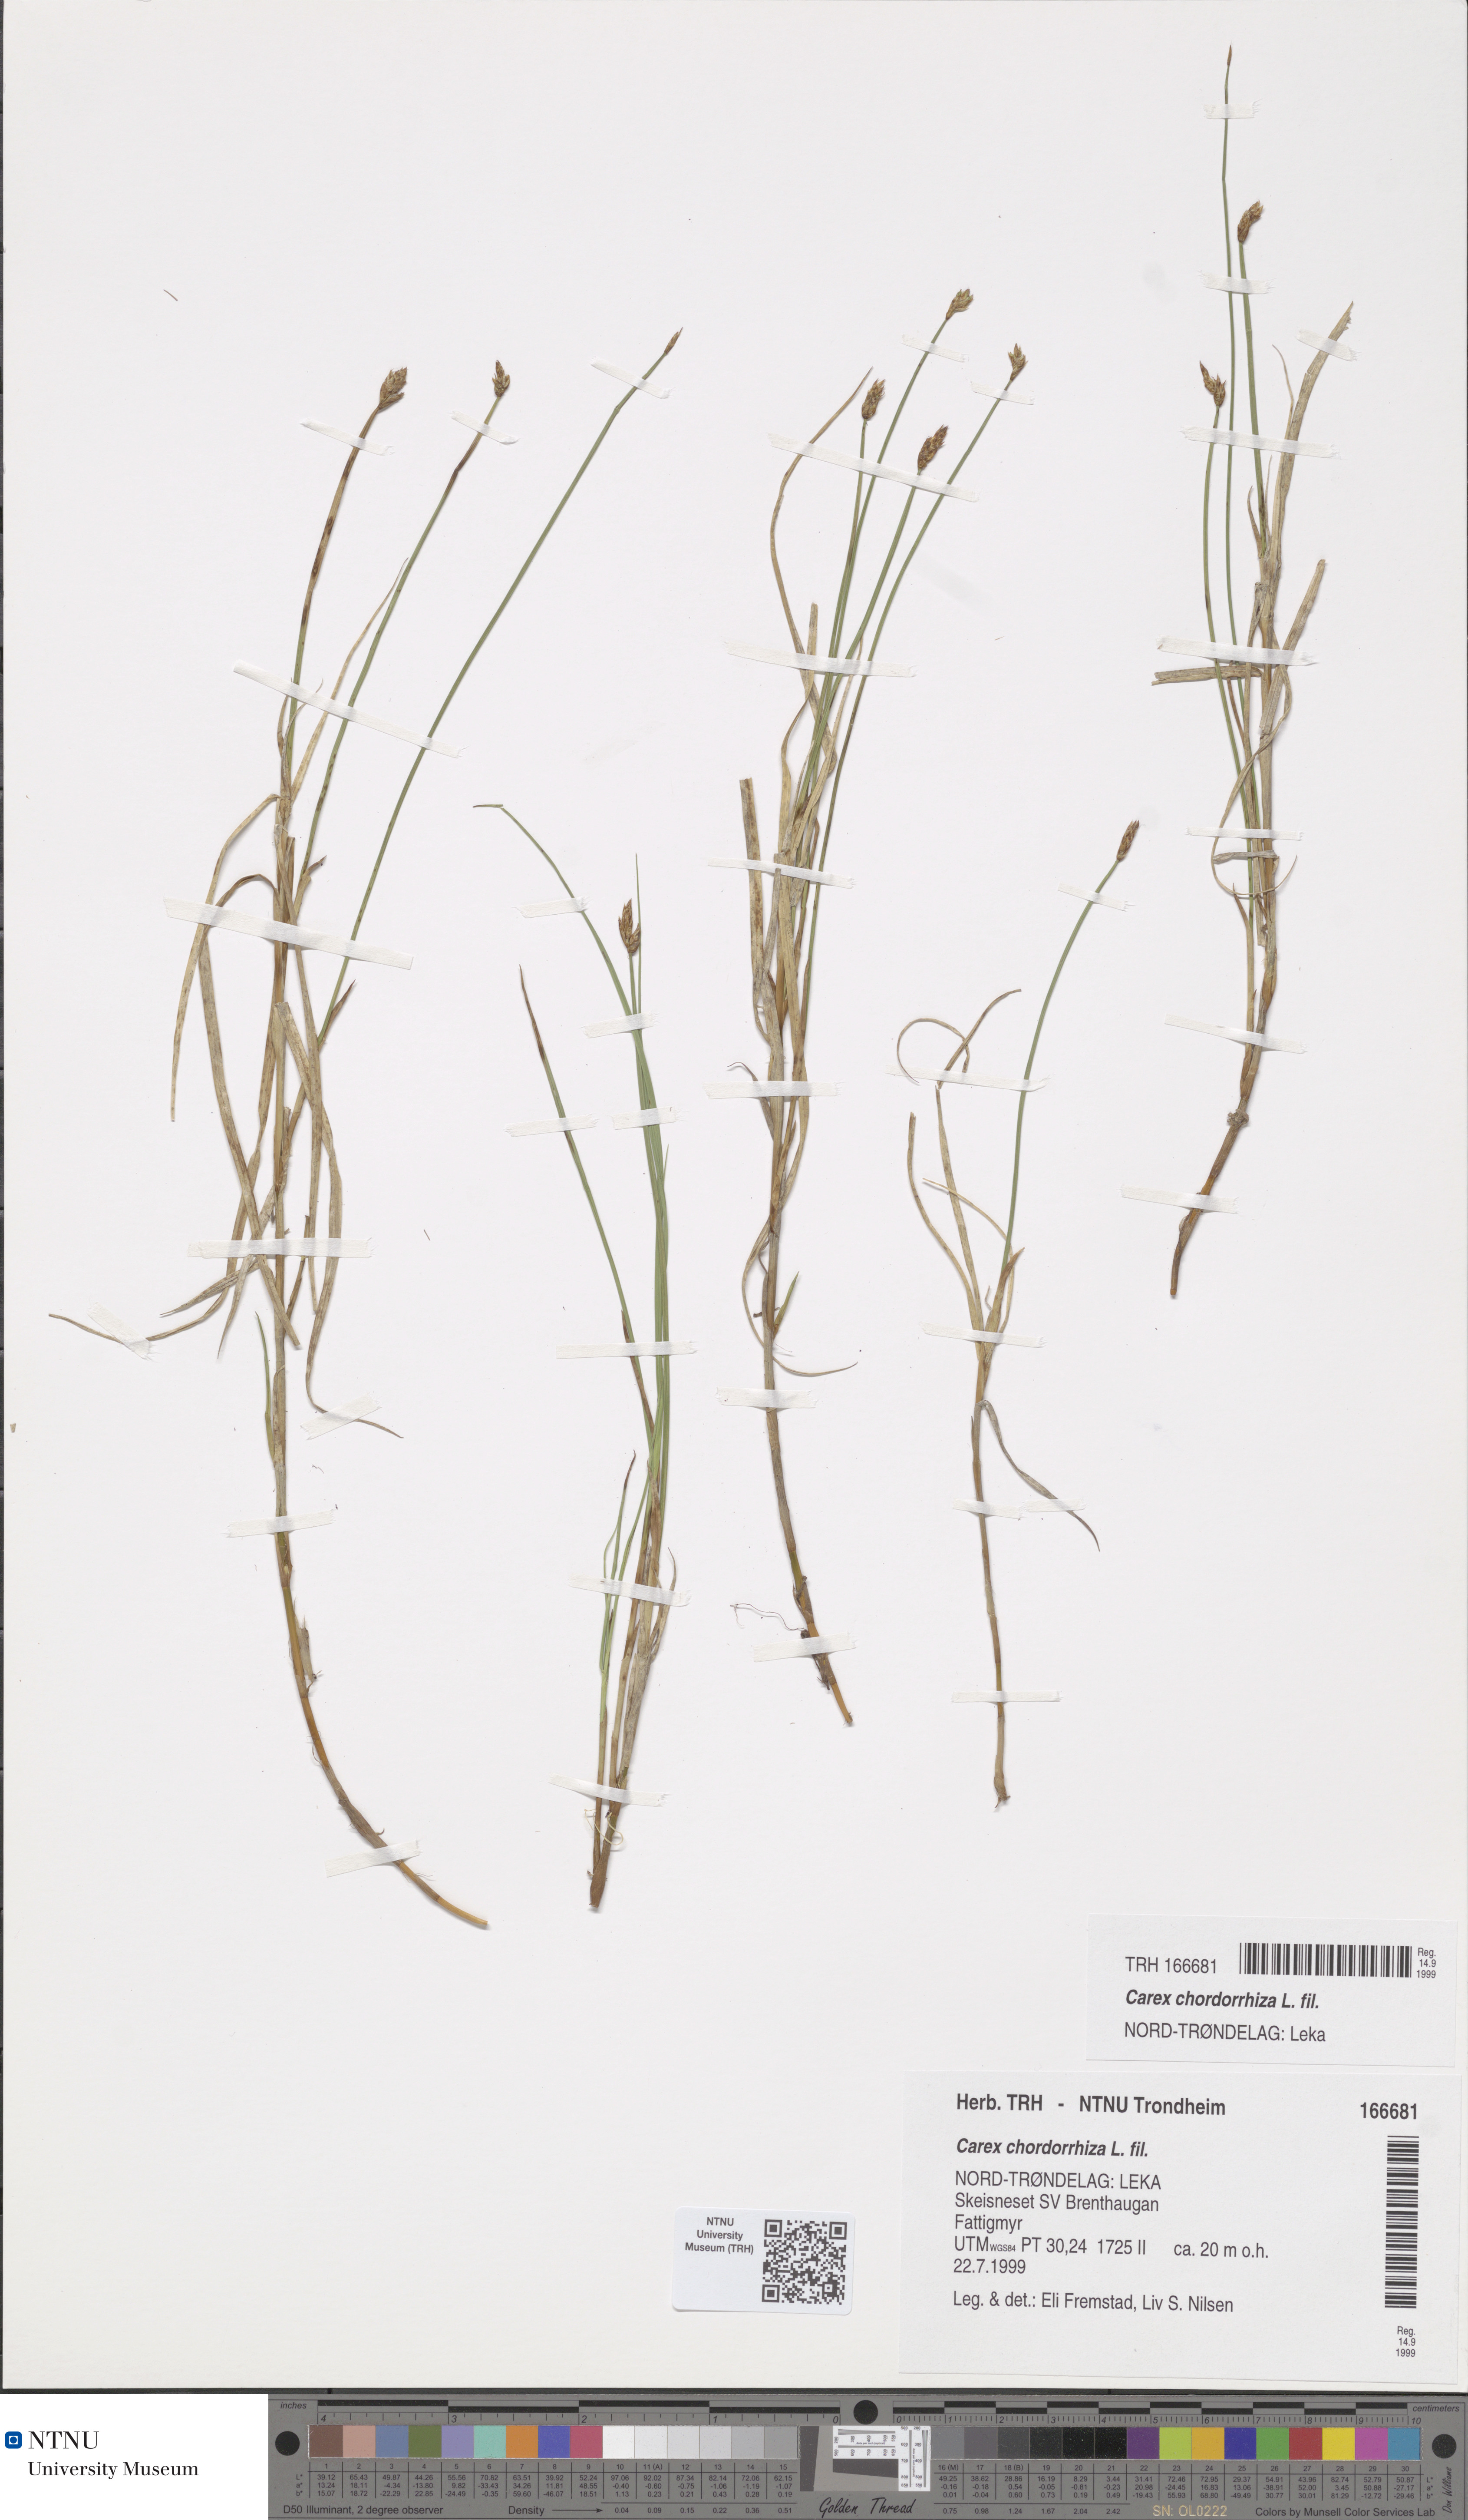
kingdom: Plantae
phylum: Tracheophyta
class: Liliopsida
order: Poales
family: Cyperaceae
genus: Carex
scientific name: Carex chordorrhiza
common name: String sedge
